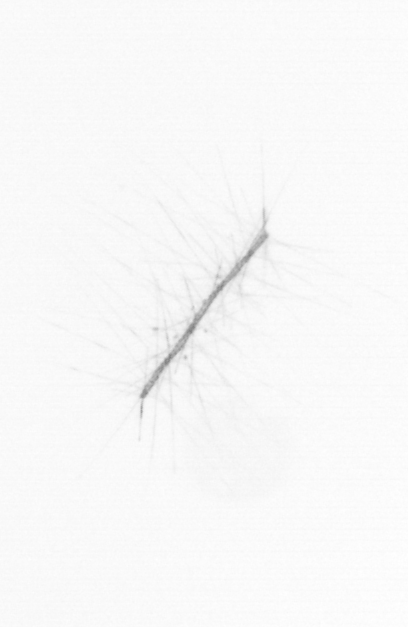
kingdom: Chromista
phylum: Ochrophyta
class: Bacillariophyceae
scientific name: Bacillariophyceae
